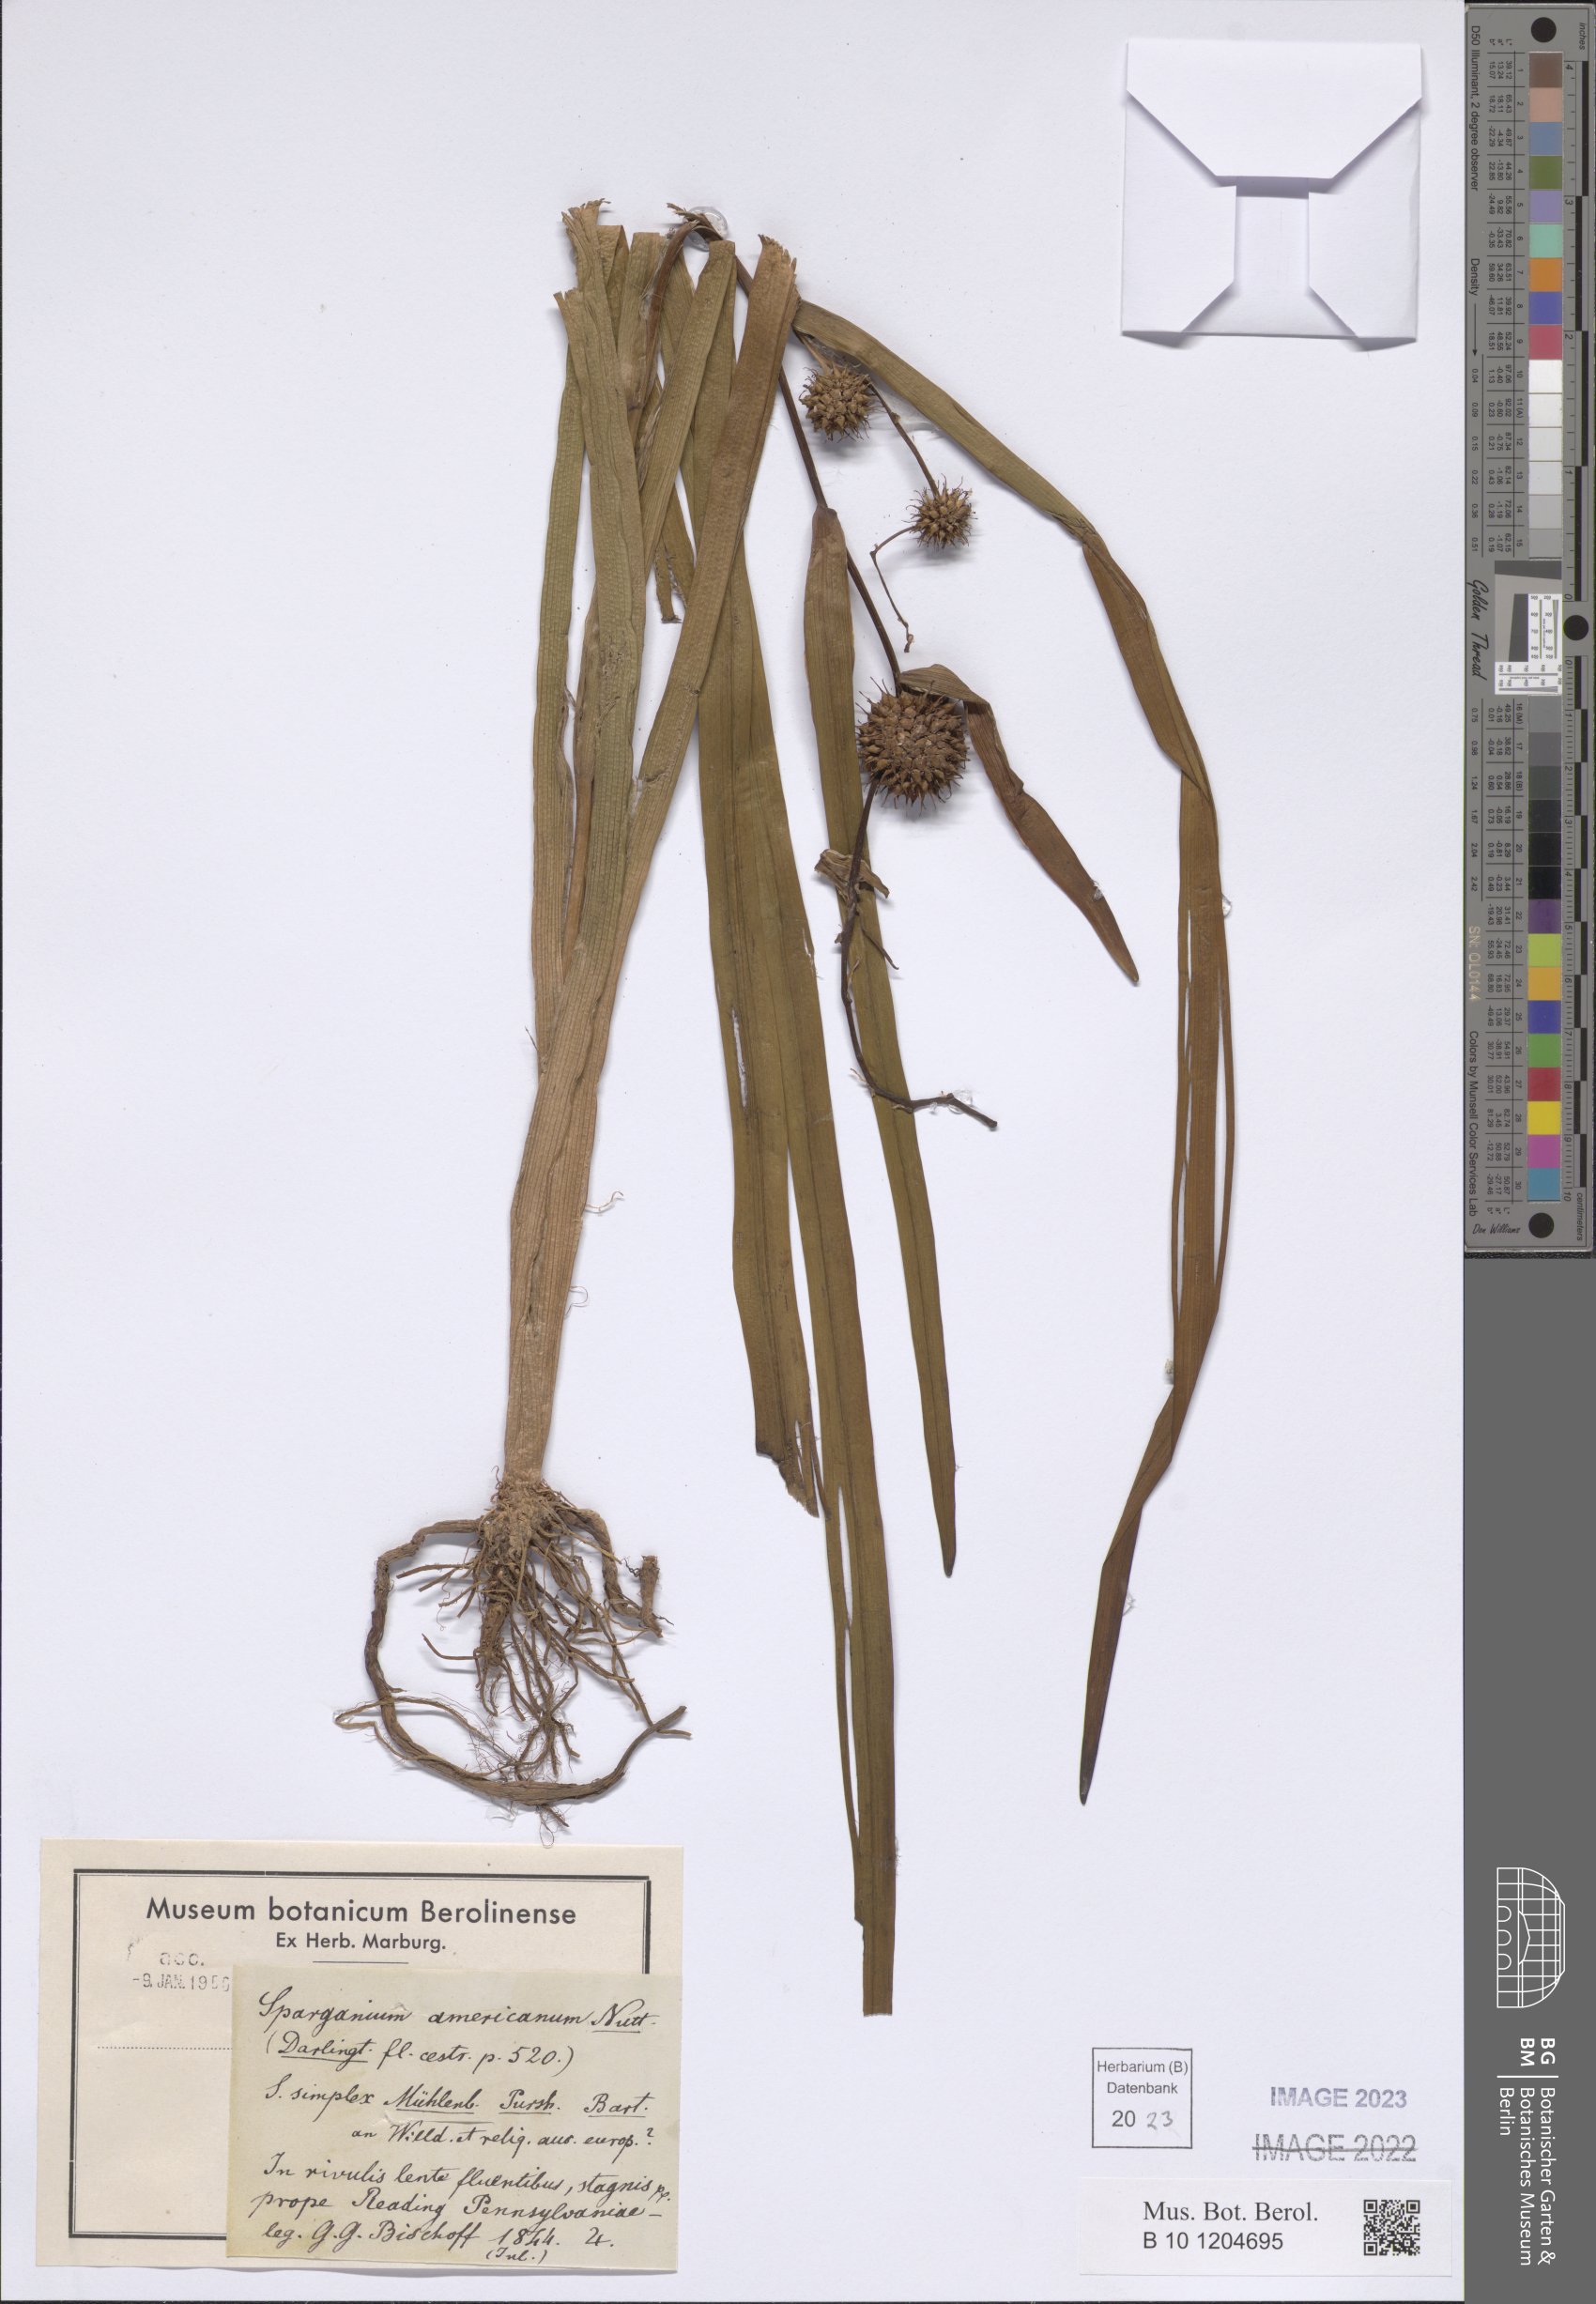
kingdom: Plantae
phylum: Tracheophyta
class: Liliopsida
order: Poales
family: Typhaceae
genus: Sparganium
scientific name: Sparganium americanum
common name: American burreed
